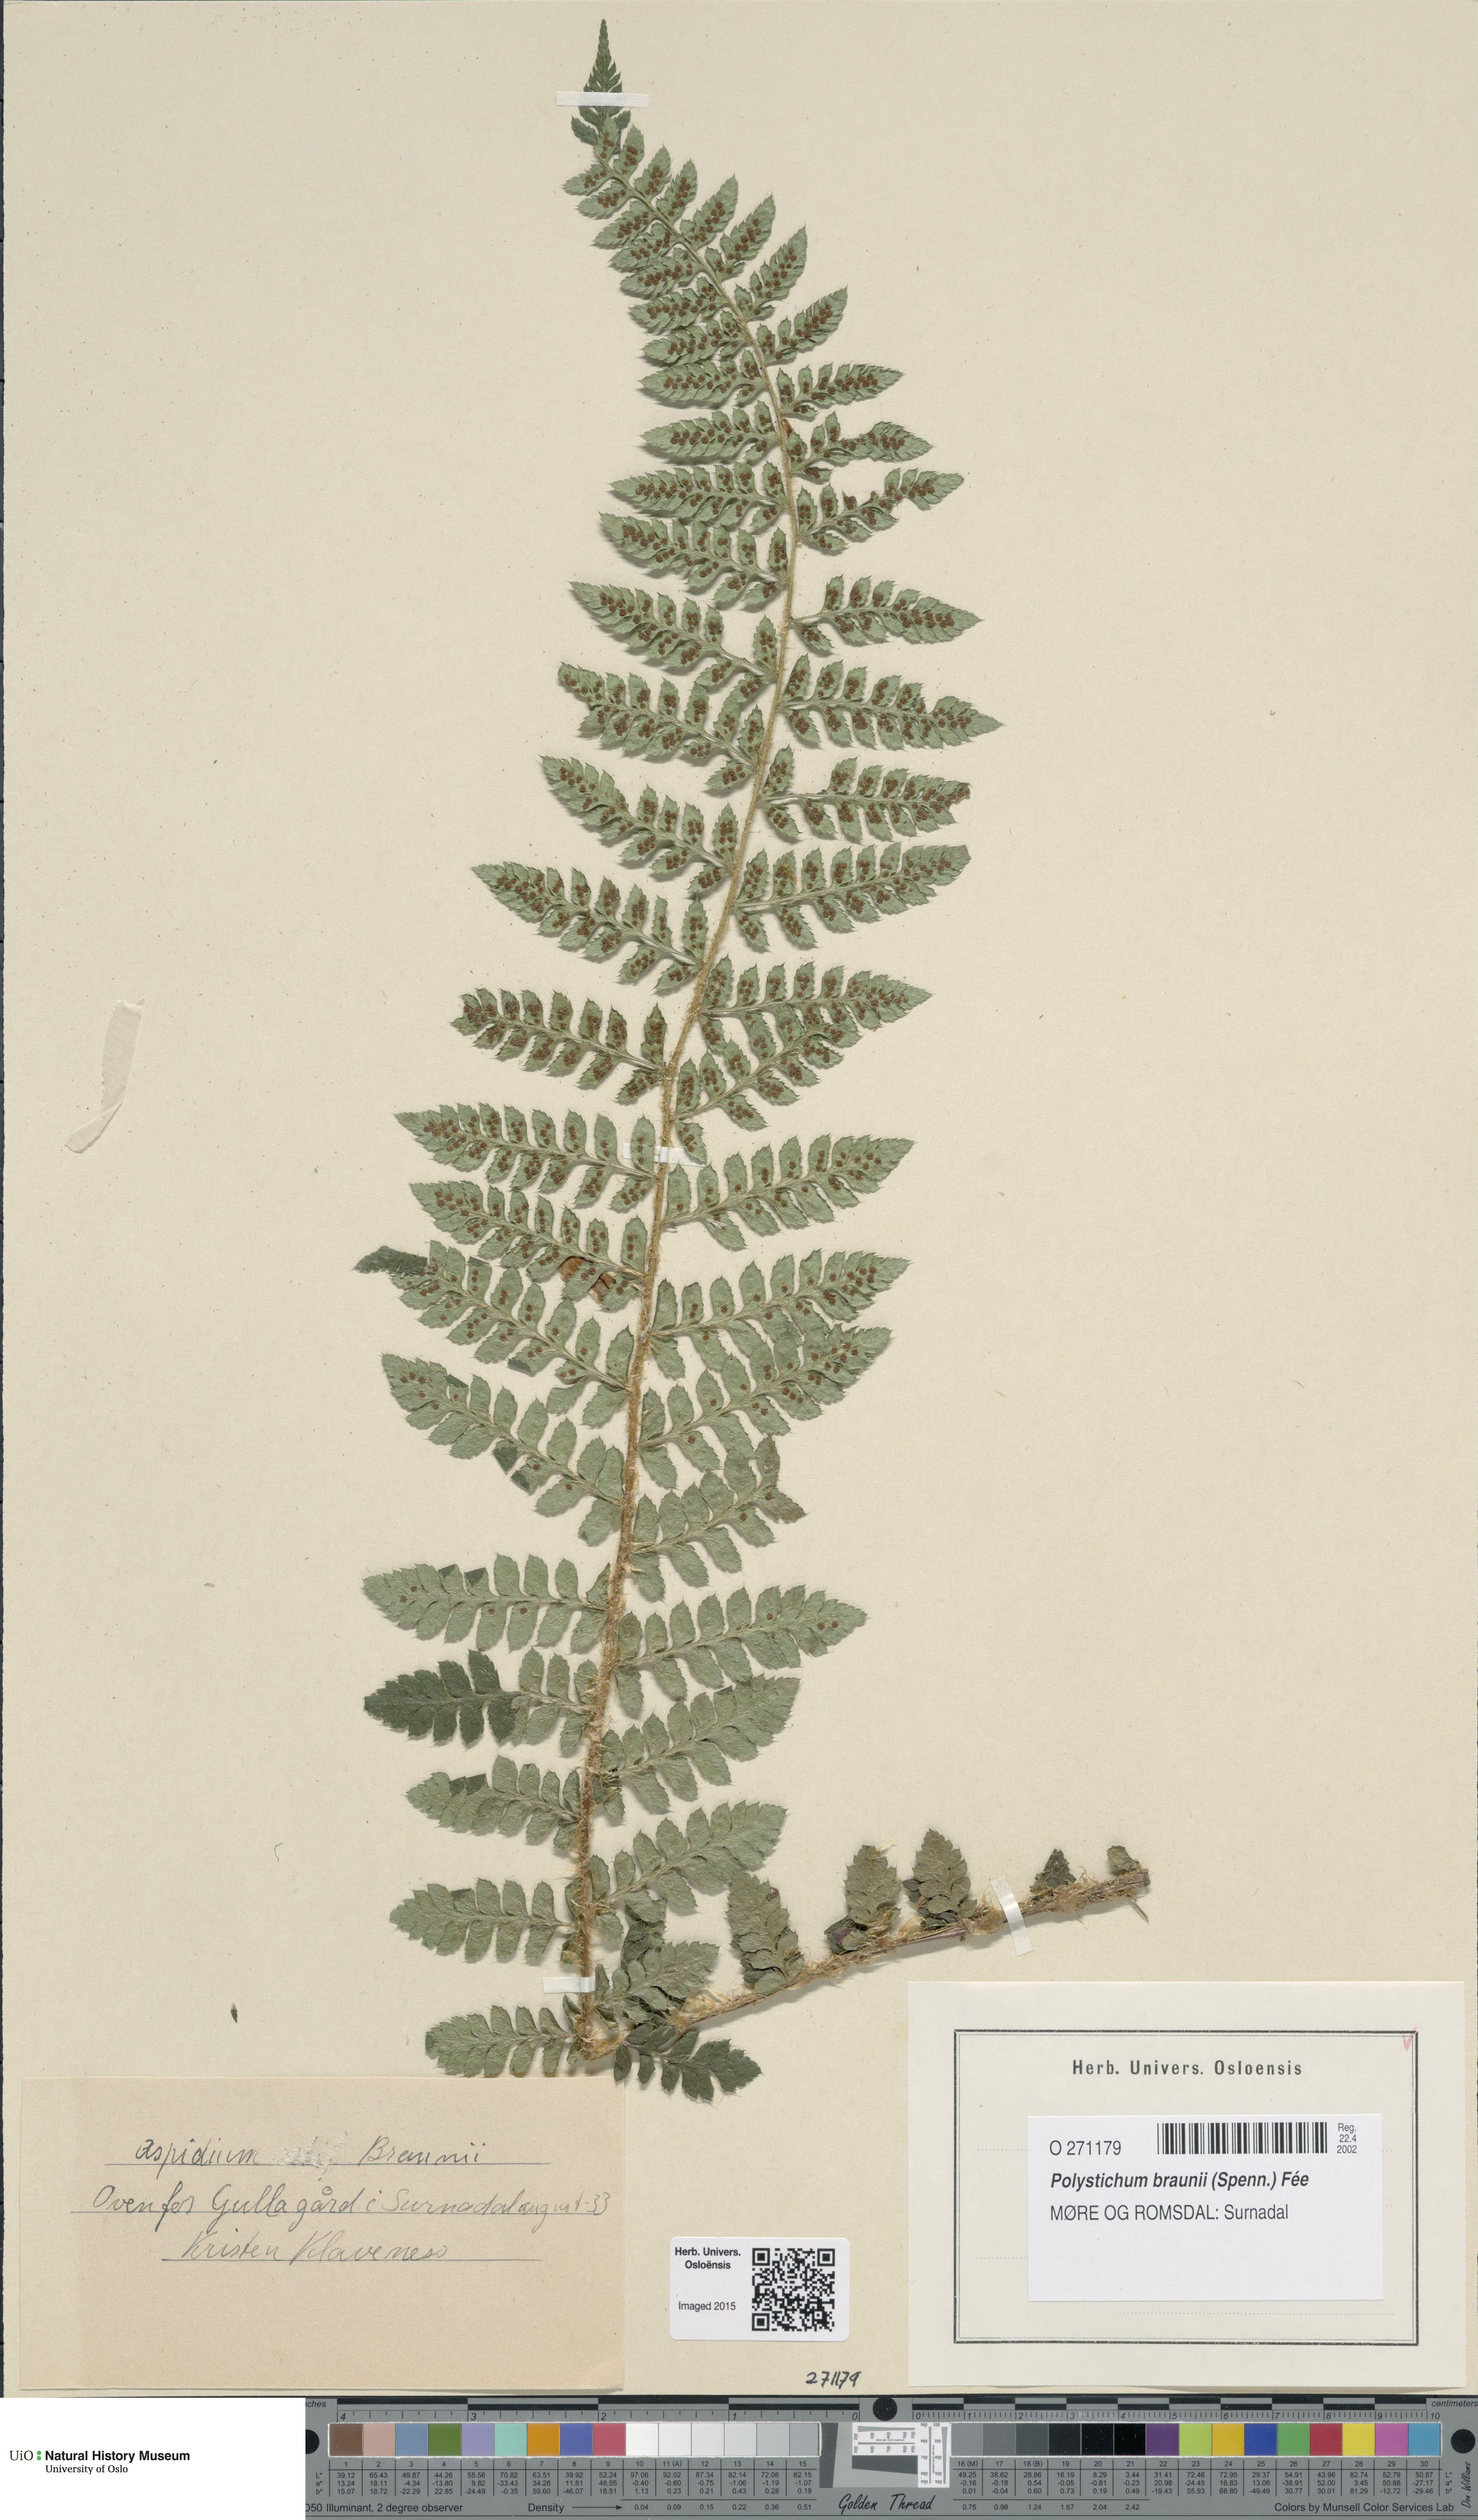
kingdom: Plantae
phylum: Tracheophyta
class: Polypodiopsida
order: Polypodiales
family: Dryopteridaceae
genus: Polystichum
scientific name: Polystichum braunii
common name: Braun's holly fern
